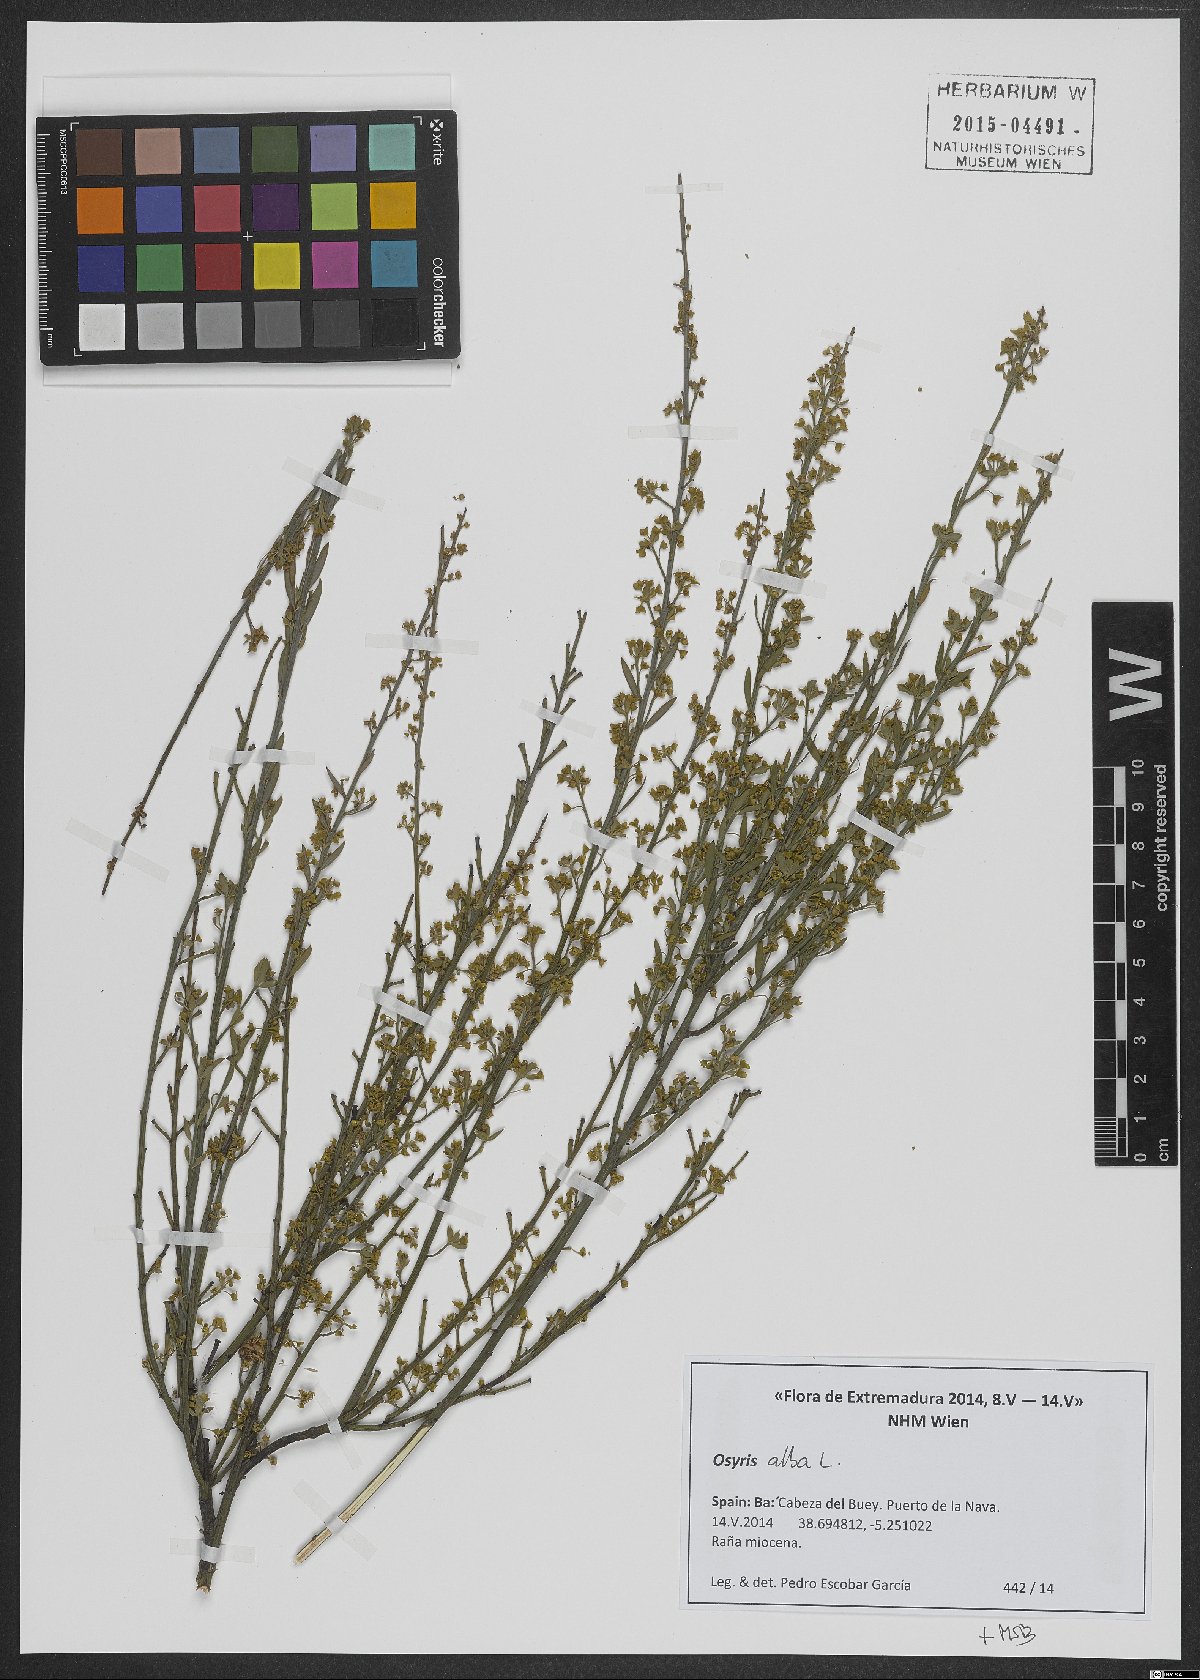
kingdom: Plantae
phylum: Tracheophyta
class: Magnoliopsida
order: Santalales
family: Santalaceae
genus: Osyris
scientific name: Osyris alba
